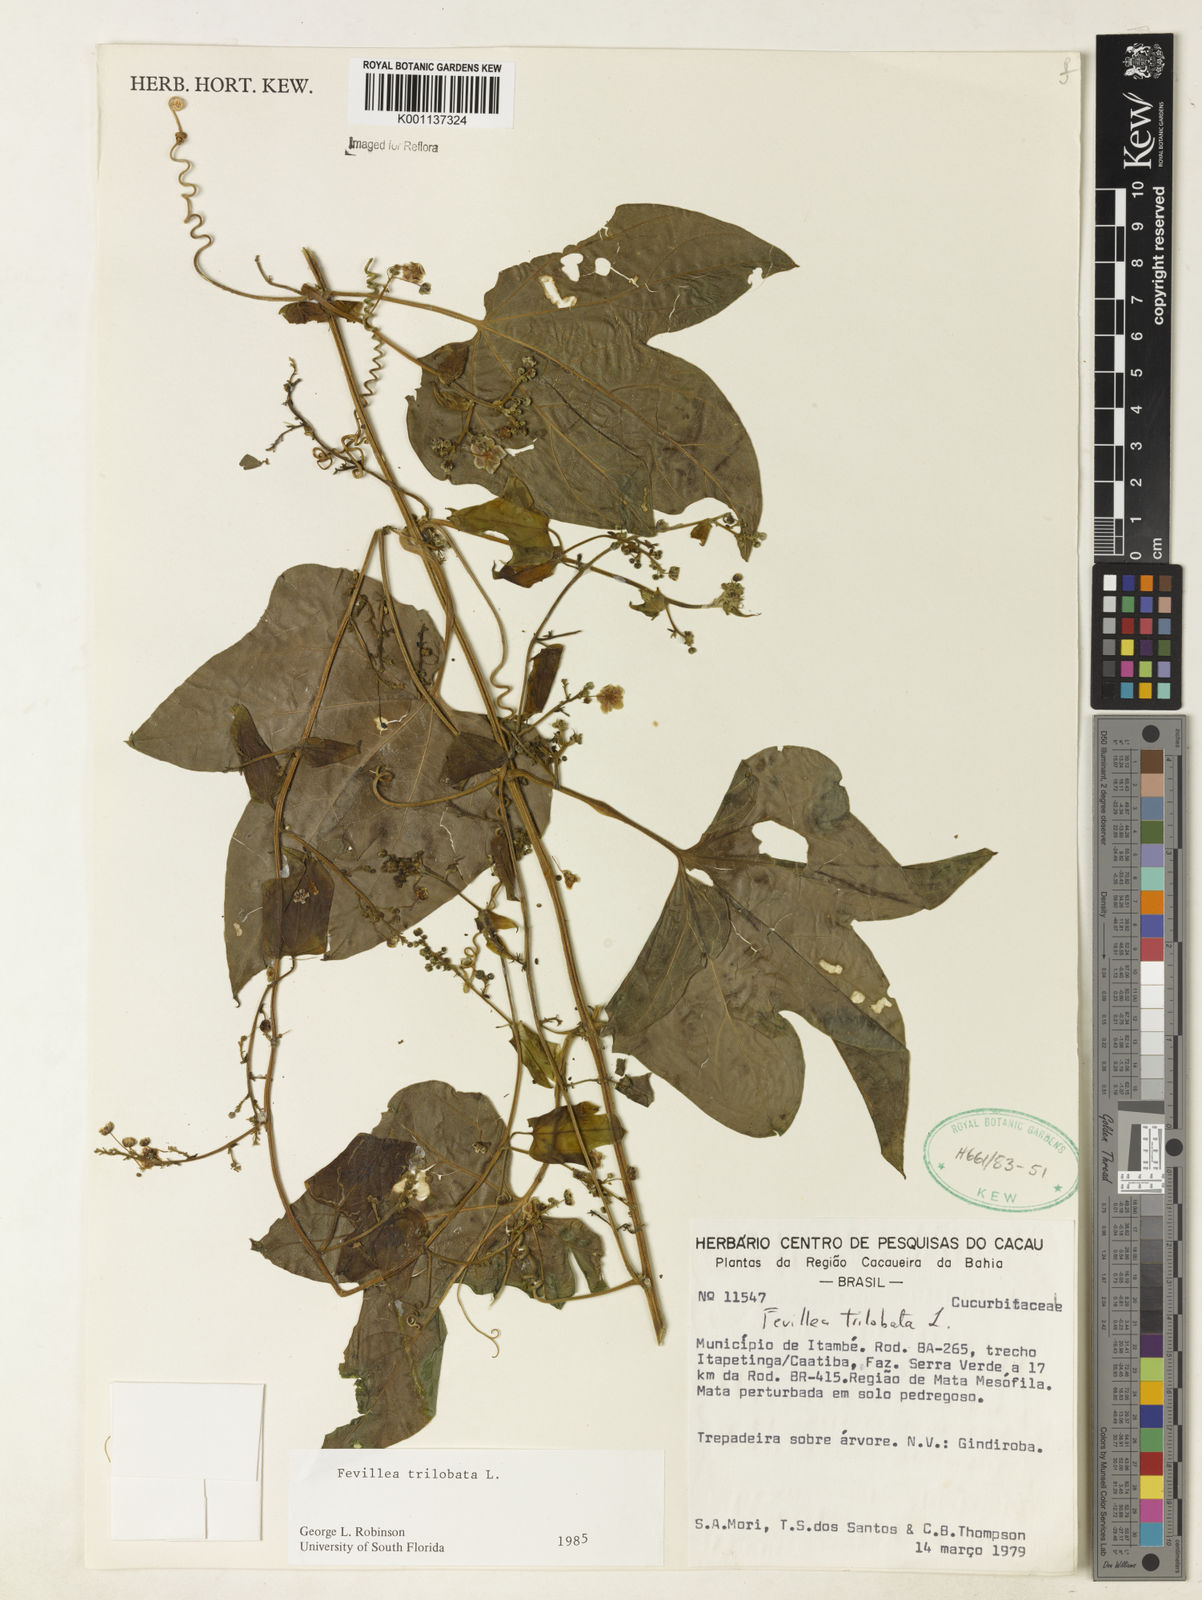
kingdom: Plantae
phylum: Tracheophyta
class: Magnoliopsida
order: Cucurbitales
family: Cucurbitaceae
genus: Fevillea
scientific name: Fevillea trilobata
